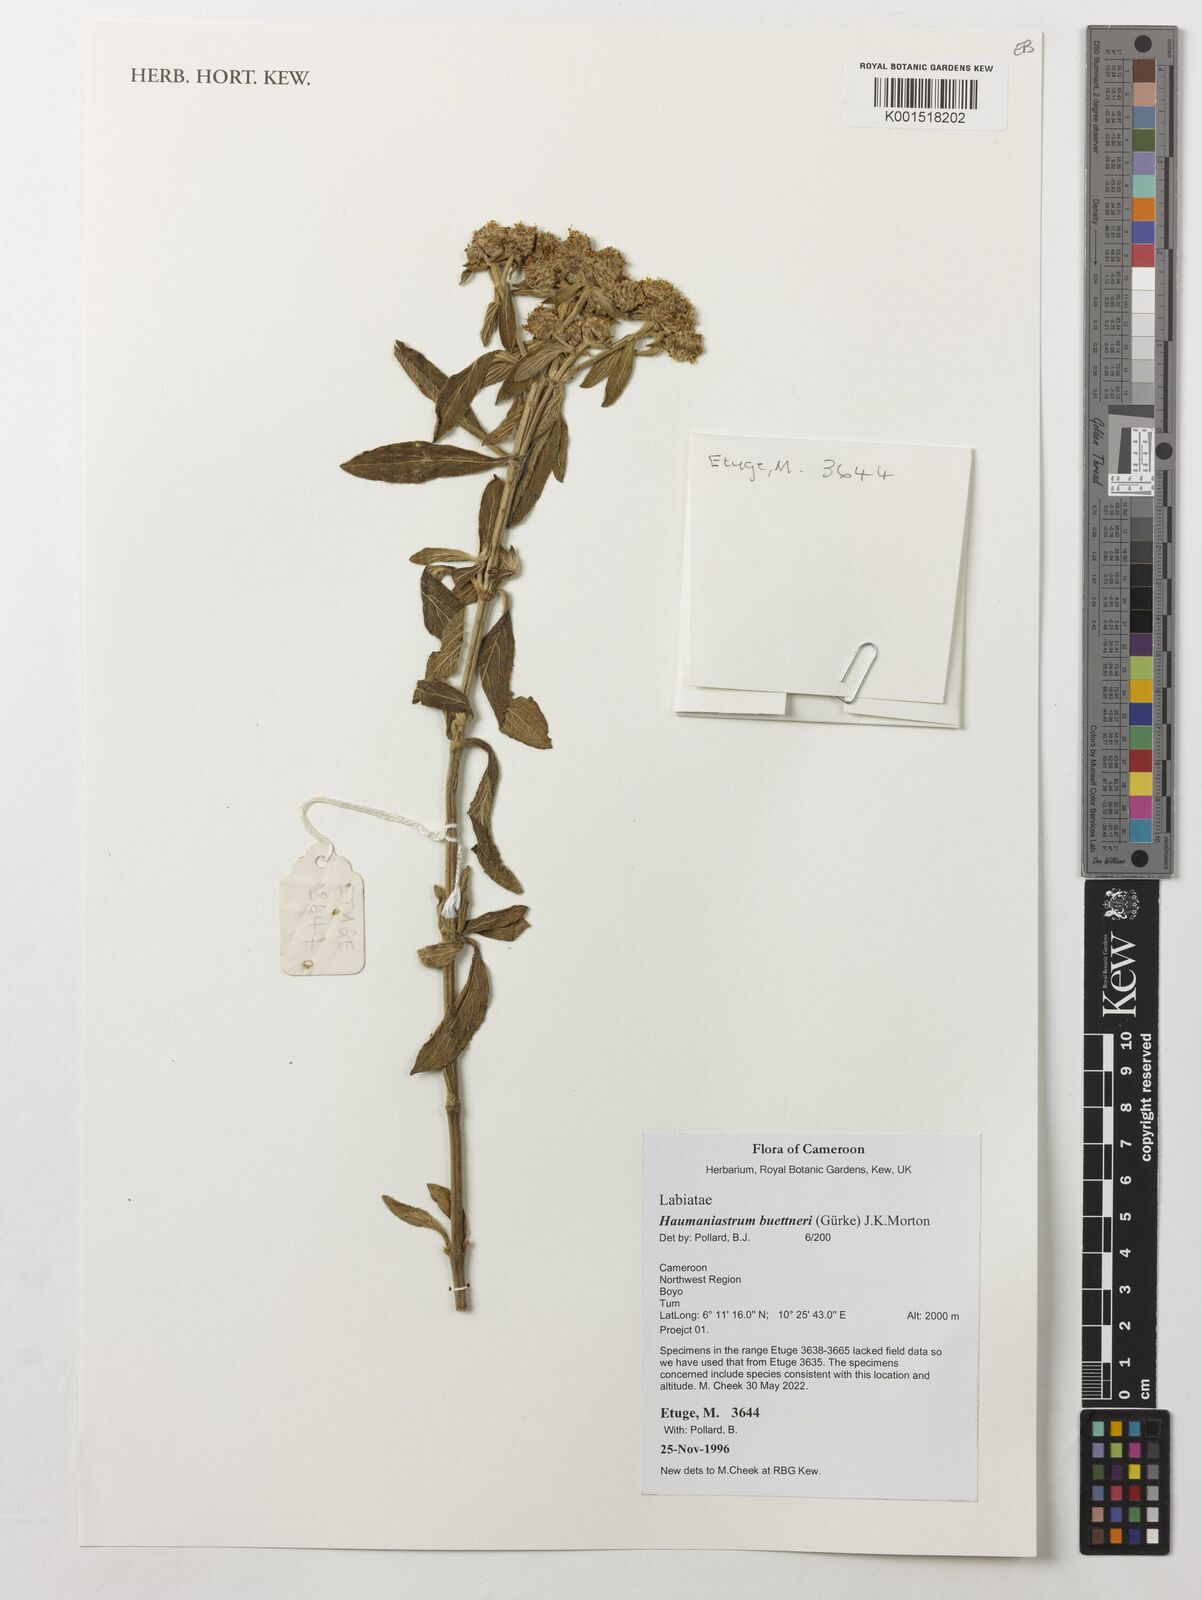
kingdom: Plantae
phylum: Tracheophyta
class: Magnoliopsida
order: Lamiales
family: Lamiaceae
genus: Haumaniastrum
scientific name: Haumaniastrum buettneri
